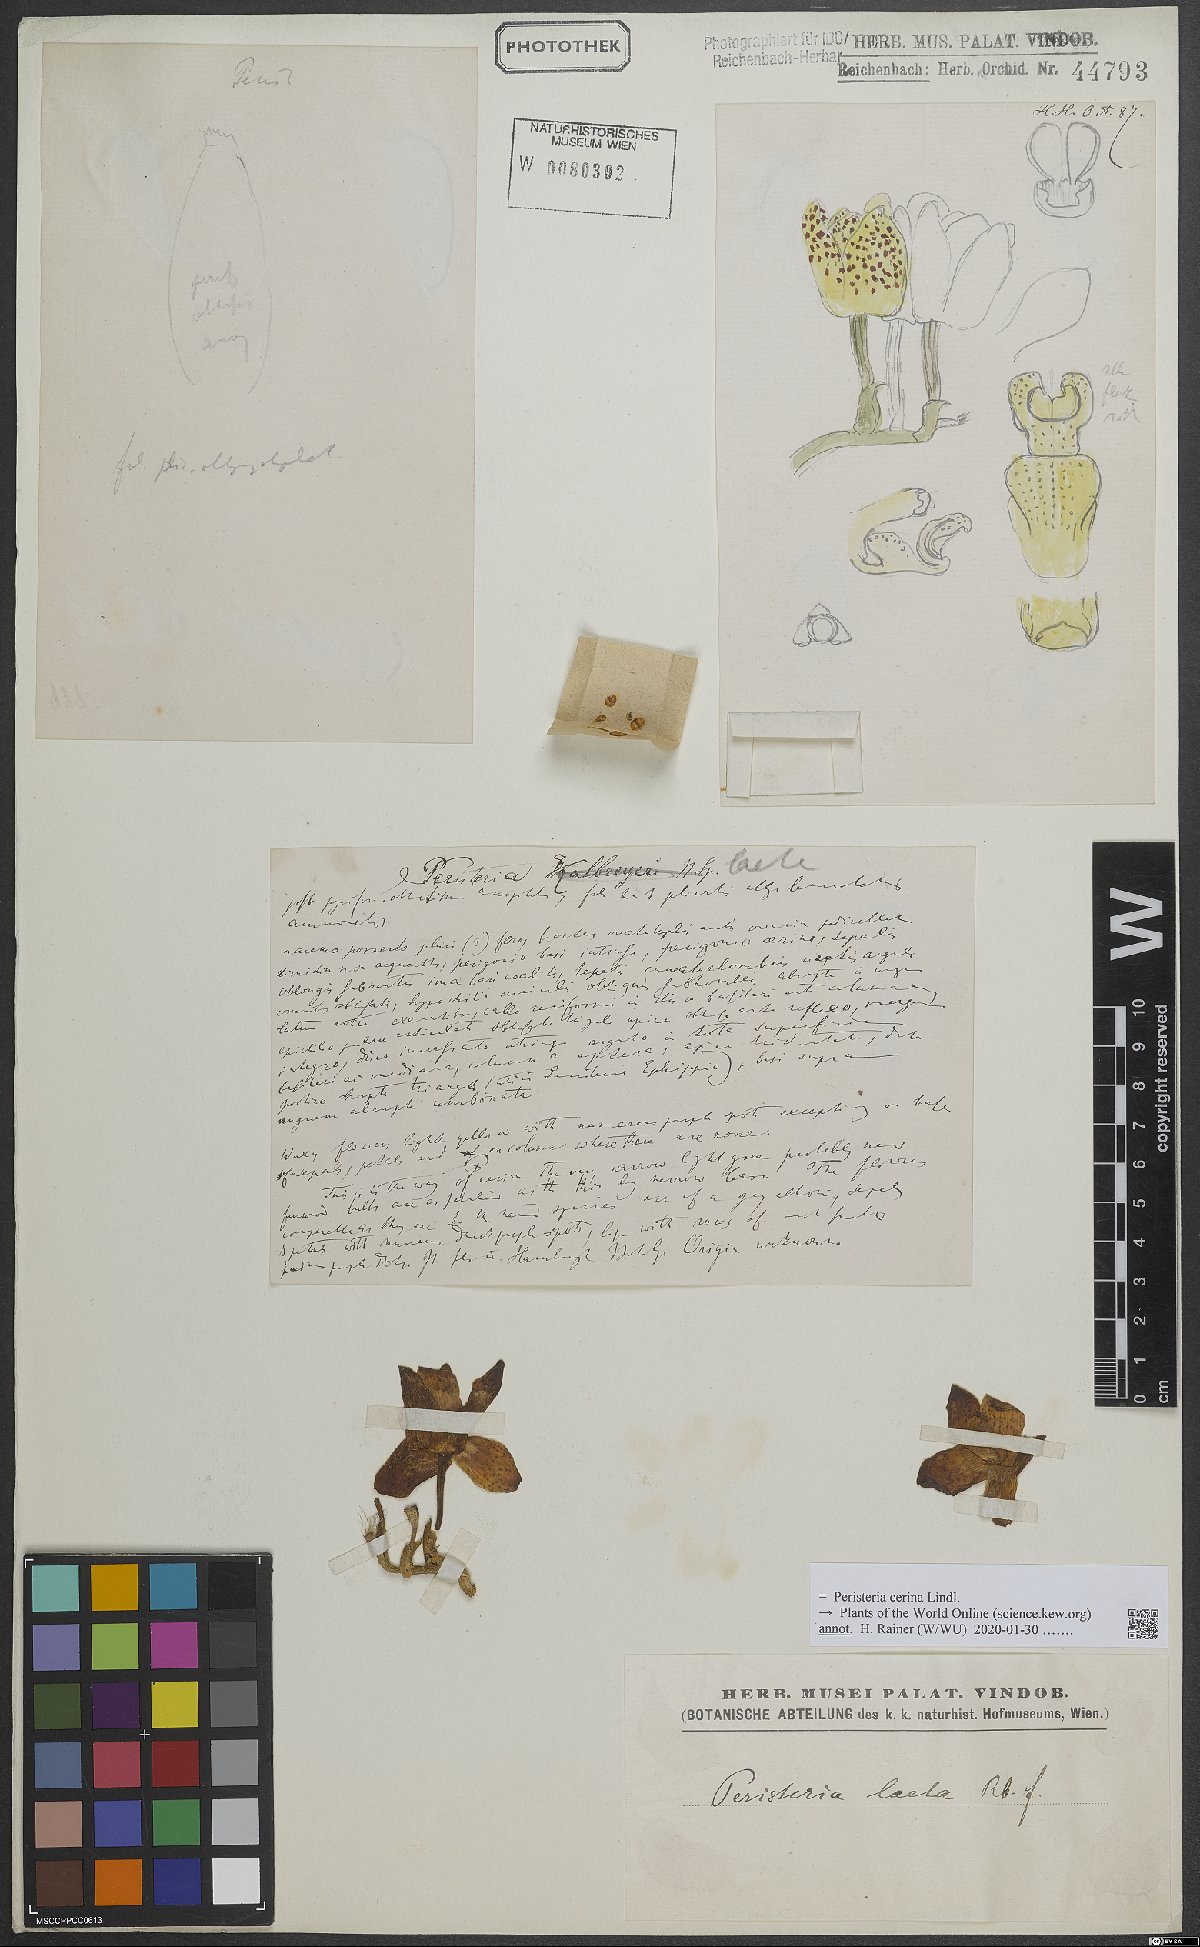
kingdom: Plantae
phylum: Tracheophyta
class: Liliopsida
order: Asparagales
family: Orchidaceae
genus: Peristeria
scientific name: Peristeria cerina
